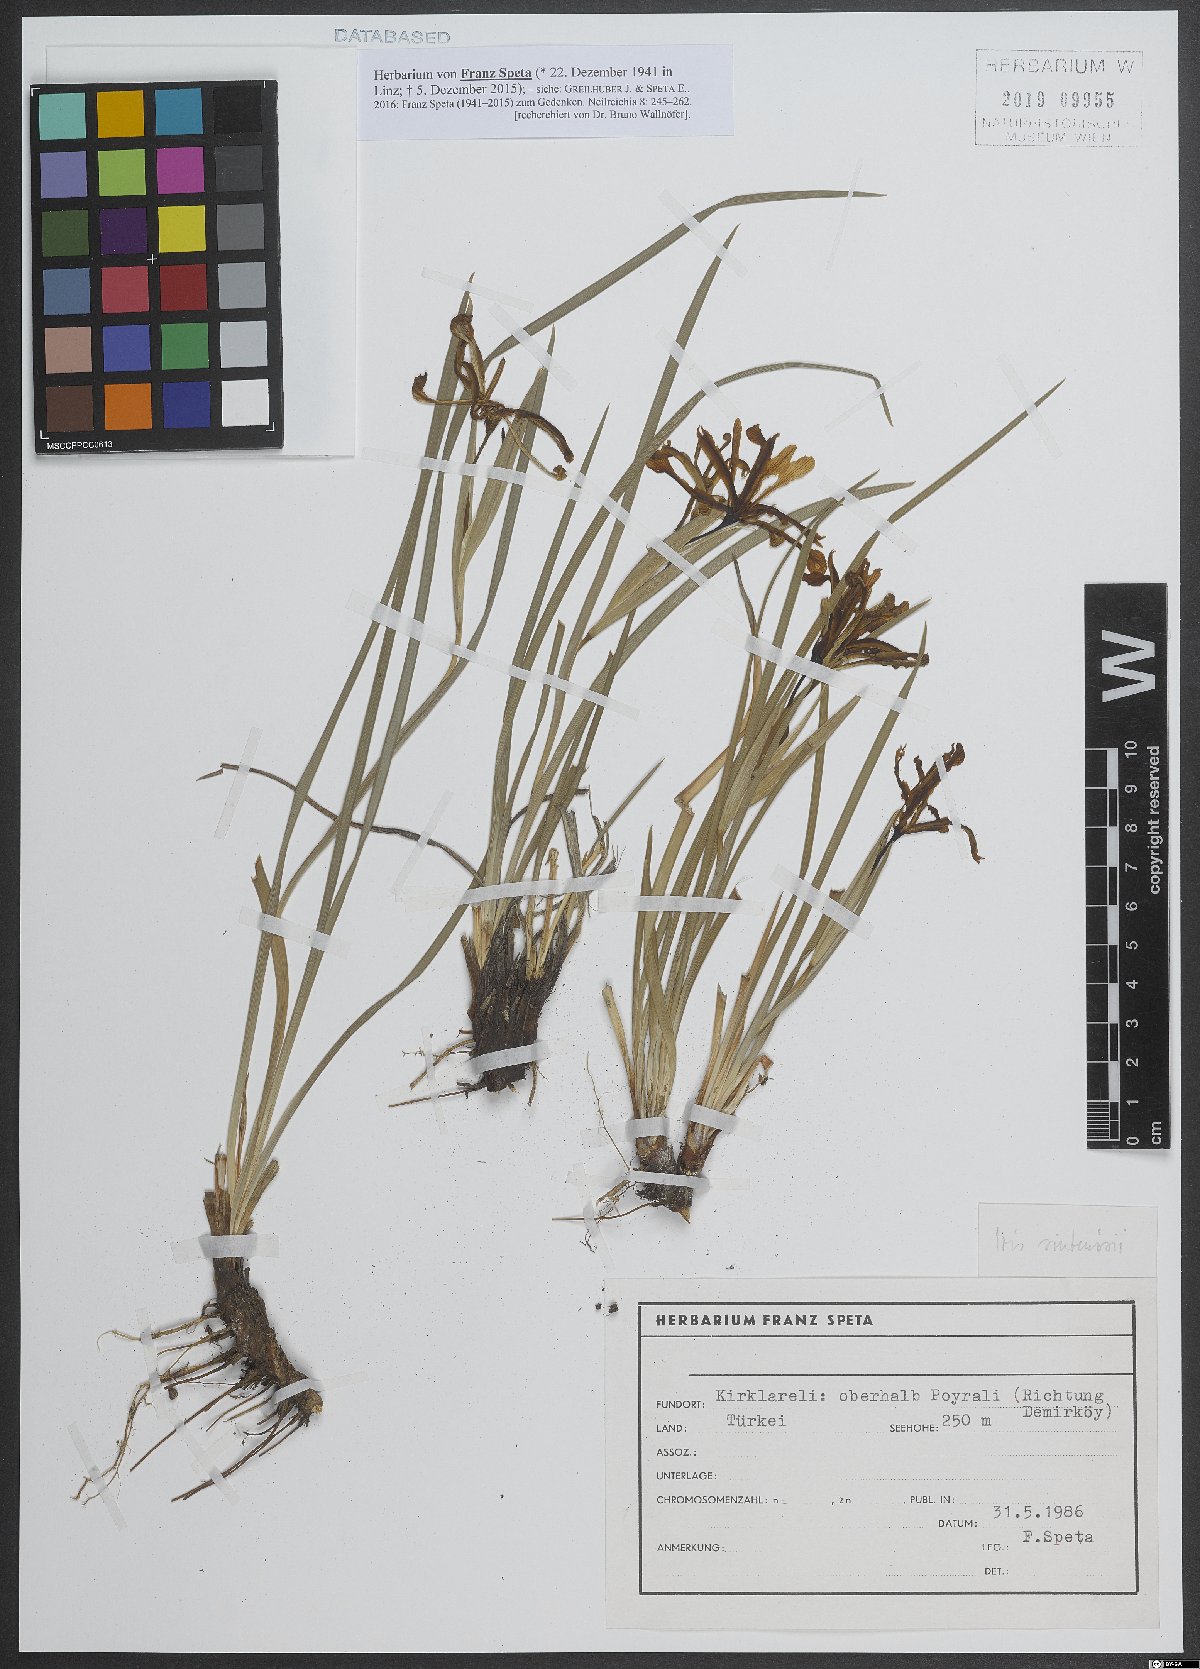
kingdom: Plantae
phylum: Tracheophyta
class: Liliopsida
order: Asparagales
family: Iridaceae
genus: Iris
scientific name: Iris sintenisii
